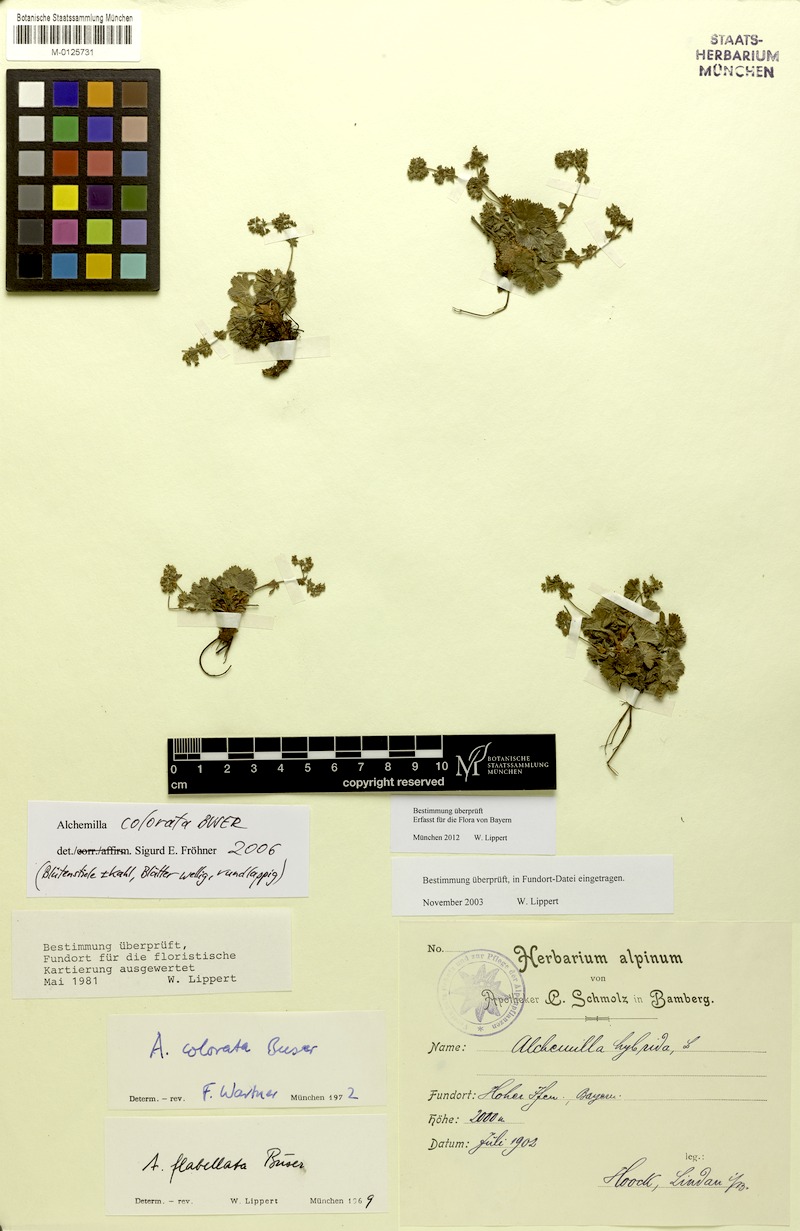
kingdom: Plantae
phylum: Tracheophyta
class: Magnoliopsida
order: Rosales
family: Rosaceae
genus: Alchemilla
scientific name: Alchemilla colorata
